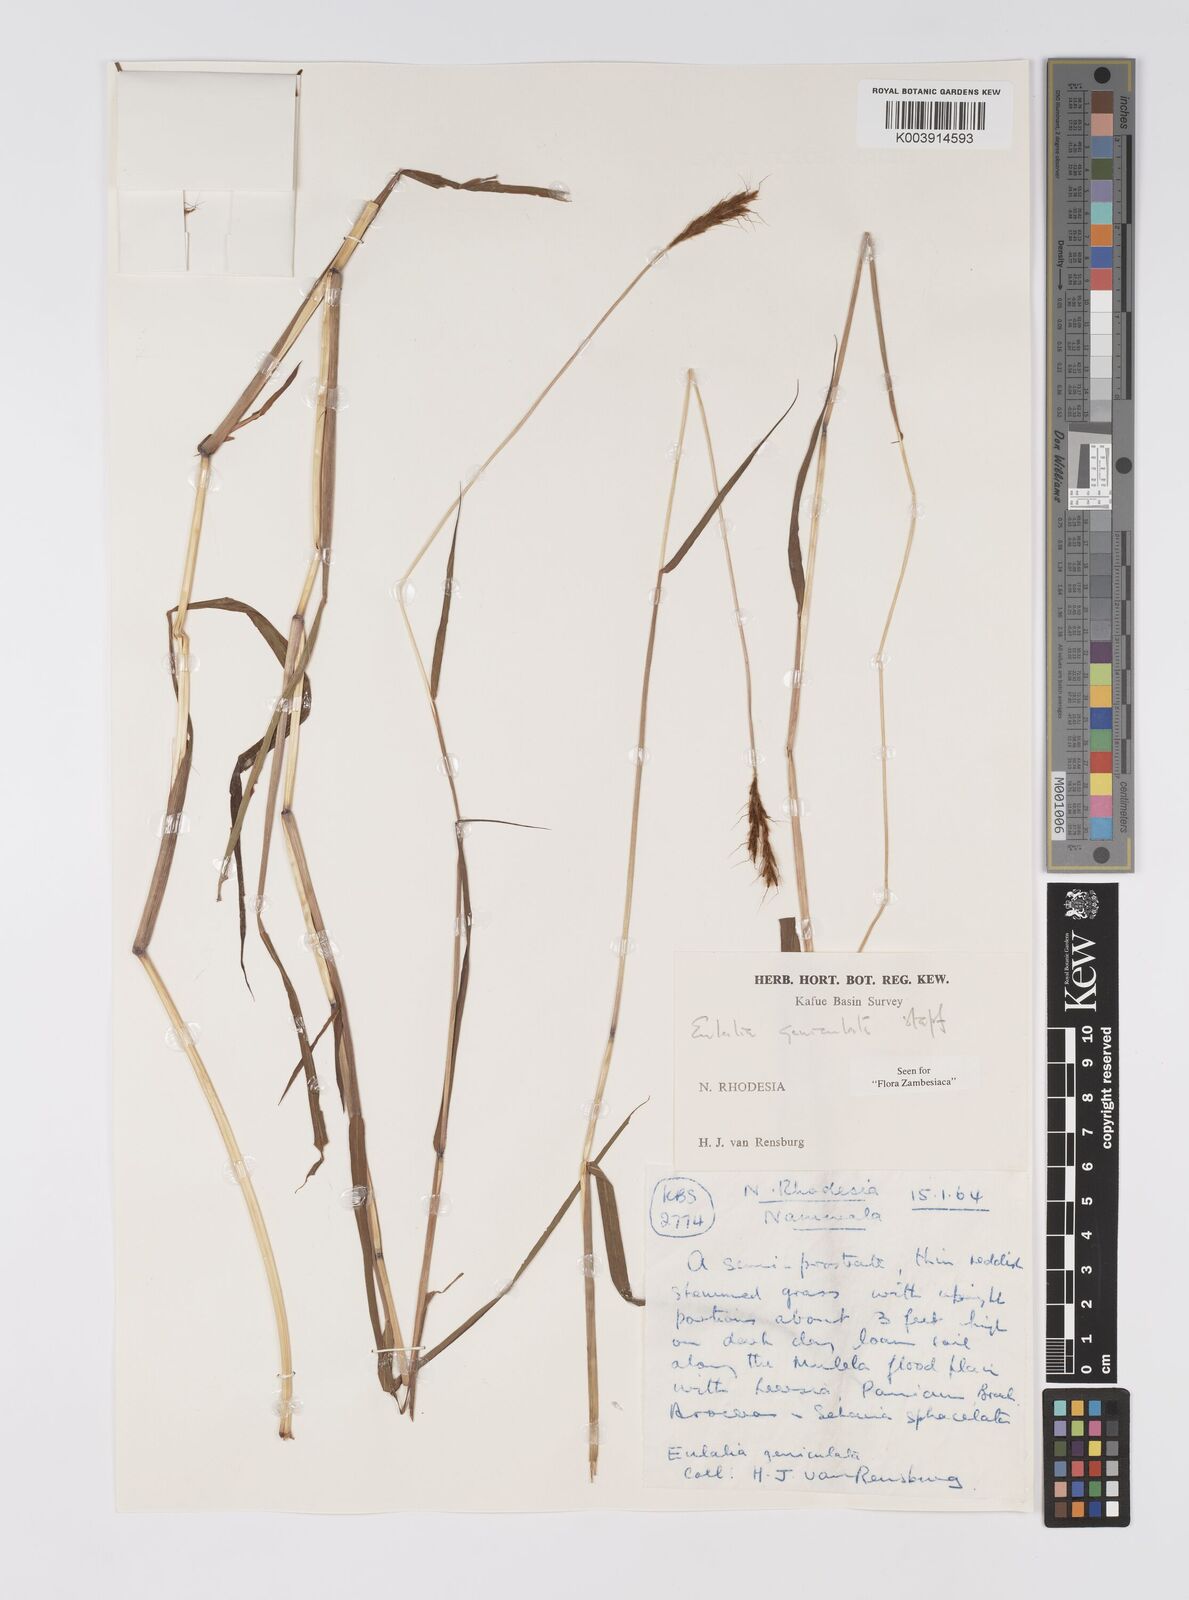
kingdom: Plantae
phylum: Tracheophyta
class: Liliopsida
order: Poales
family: Poaceae
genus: Eulalia
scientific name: Eulalia aurea
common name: Silky browntop
